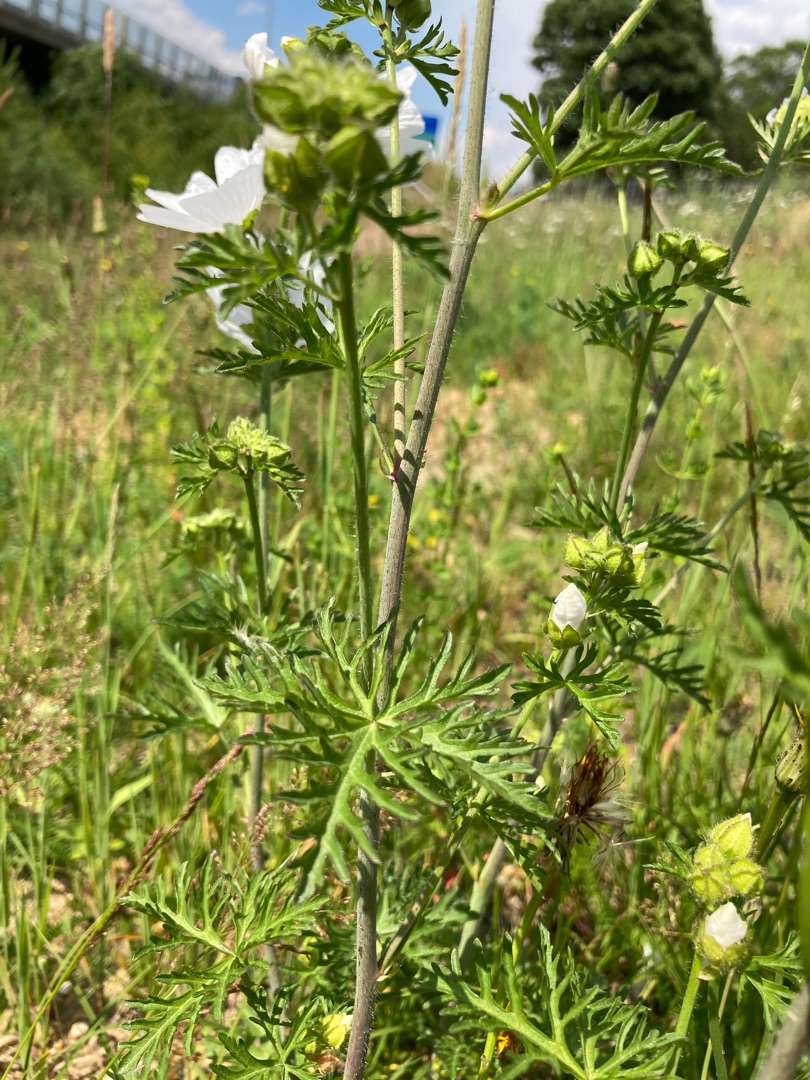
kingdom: Plantae
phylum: Tracheophyta
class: Magnoliopsida
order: Malvales
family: Malvaceae
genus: Malva
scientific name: Malva moschata
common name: Moskus-katost
